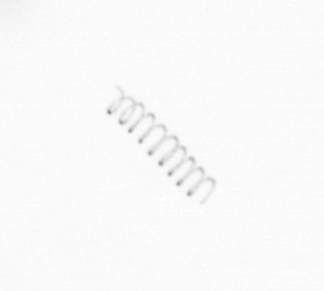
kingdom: Chromista
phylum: Ochrophyta
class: Bacillariophyceae
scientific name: Bacillariophyceae
